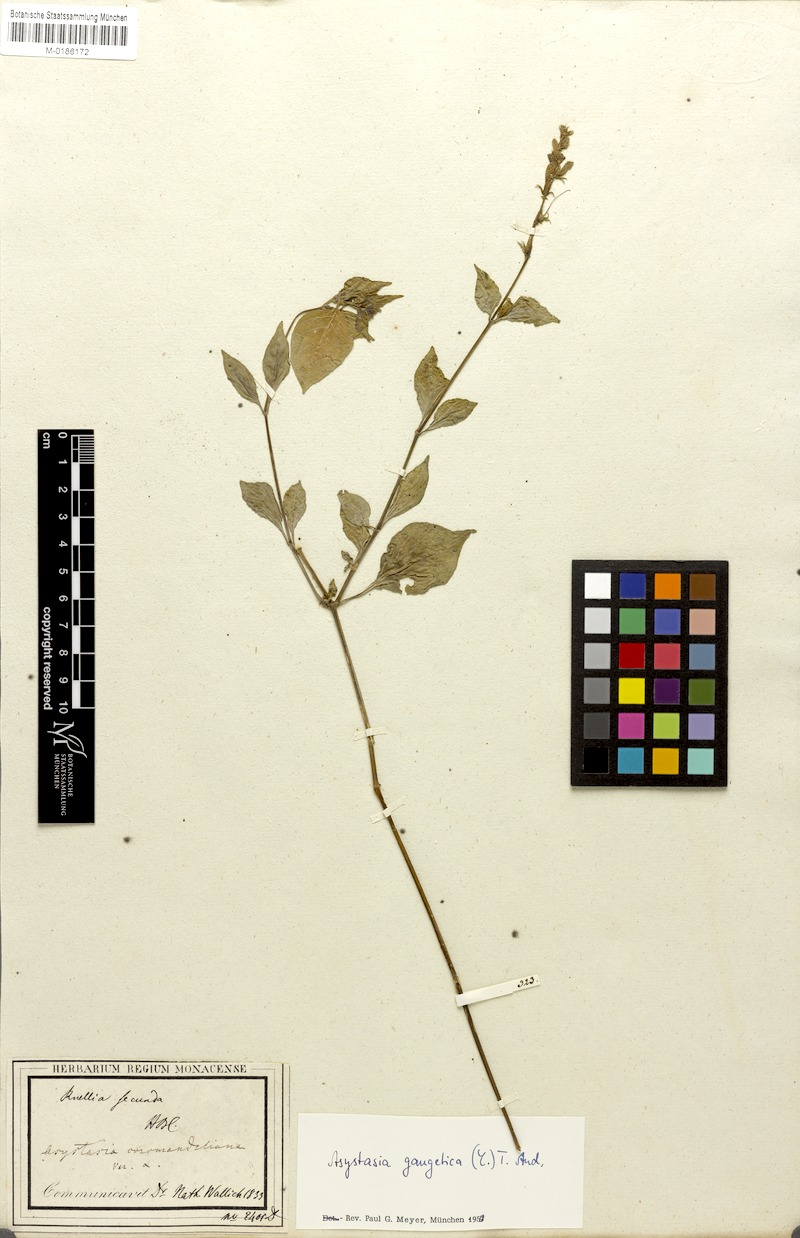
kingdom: Plantae
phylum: Tracheophyta
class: Magnoliopsida
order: Lamiales
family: Acanthaceae
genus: Asystasia
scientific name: Asystasia gangetica
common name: Chinese violet
